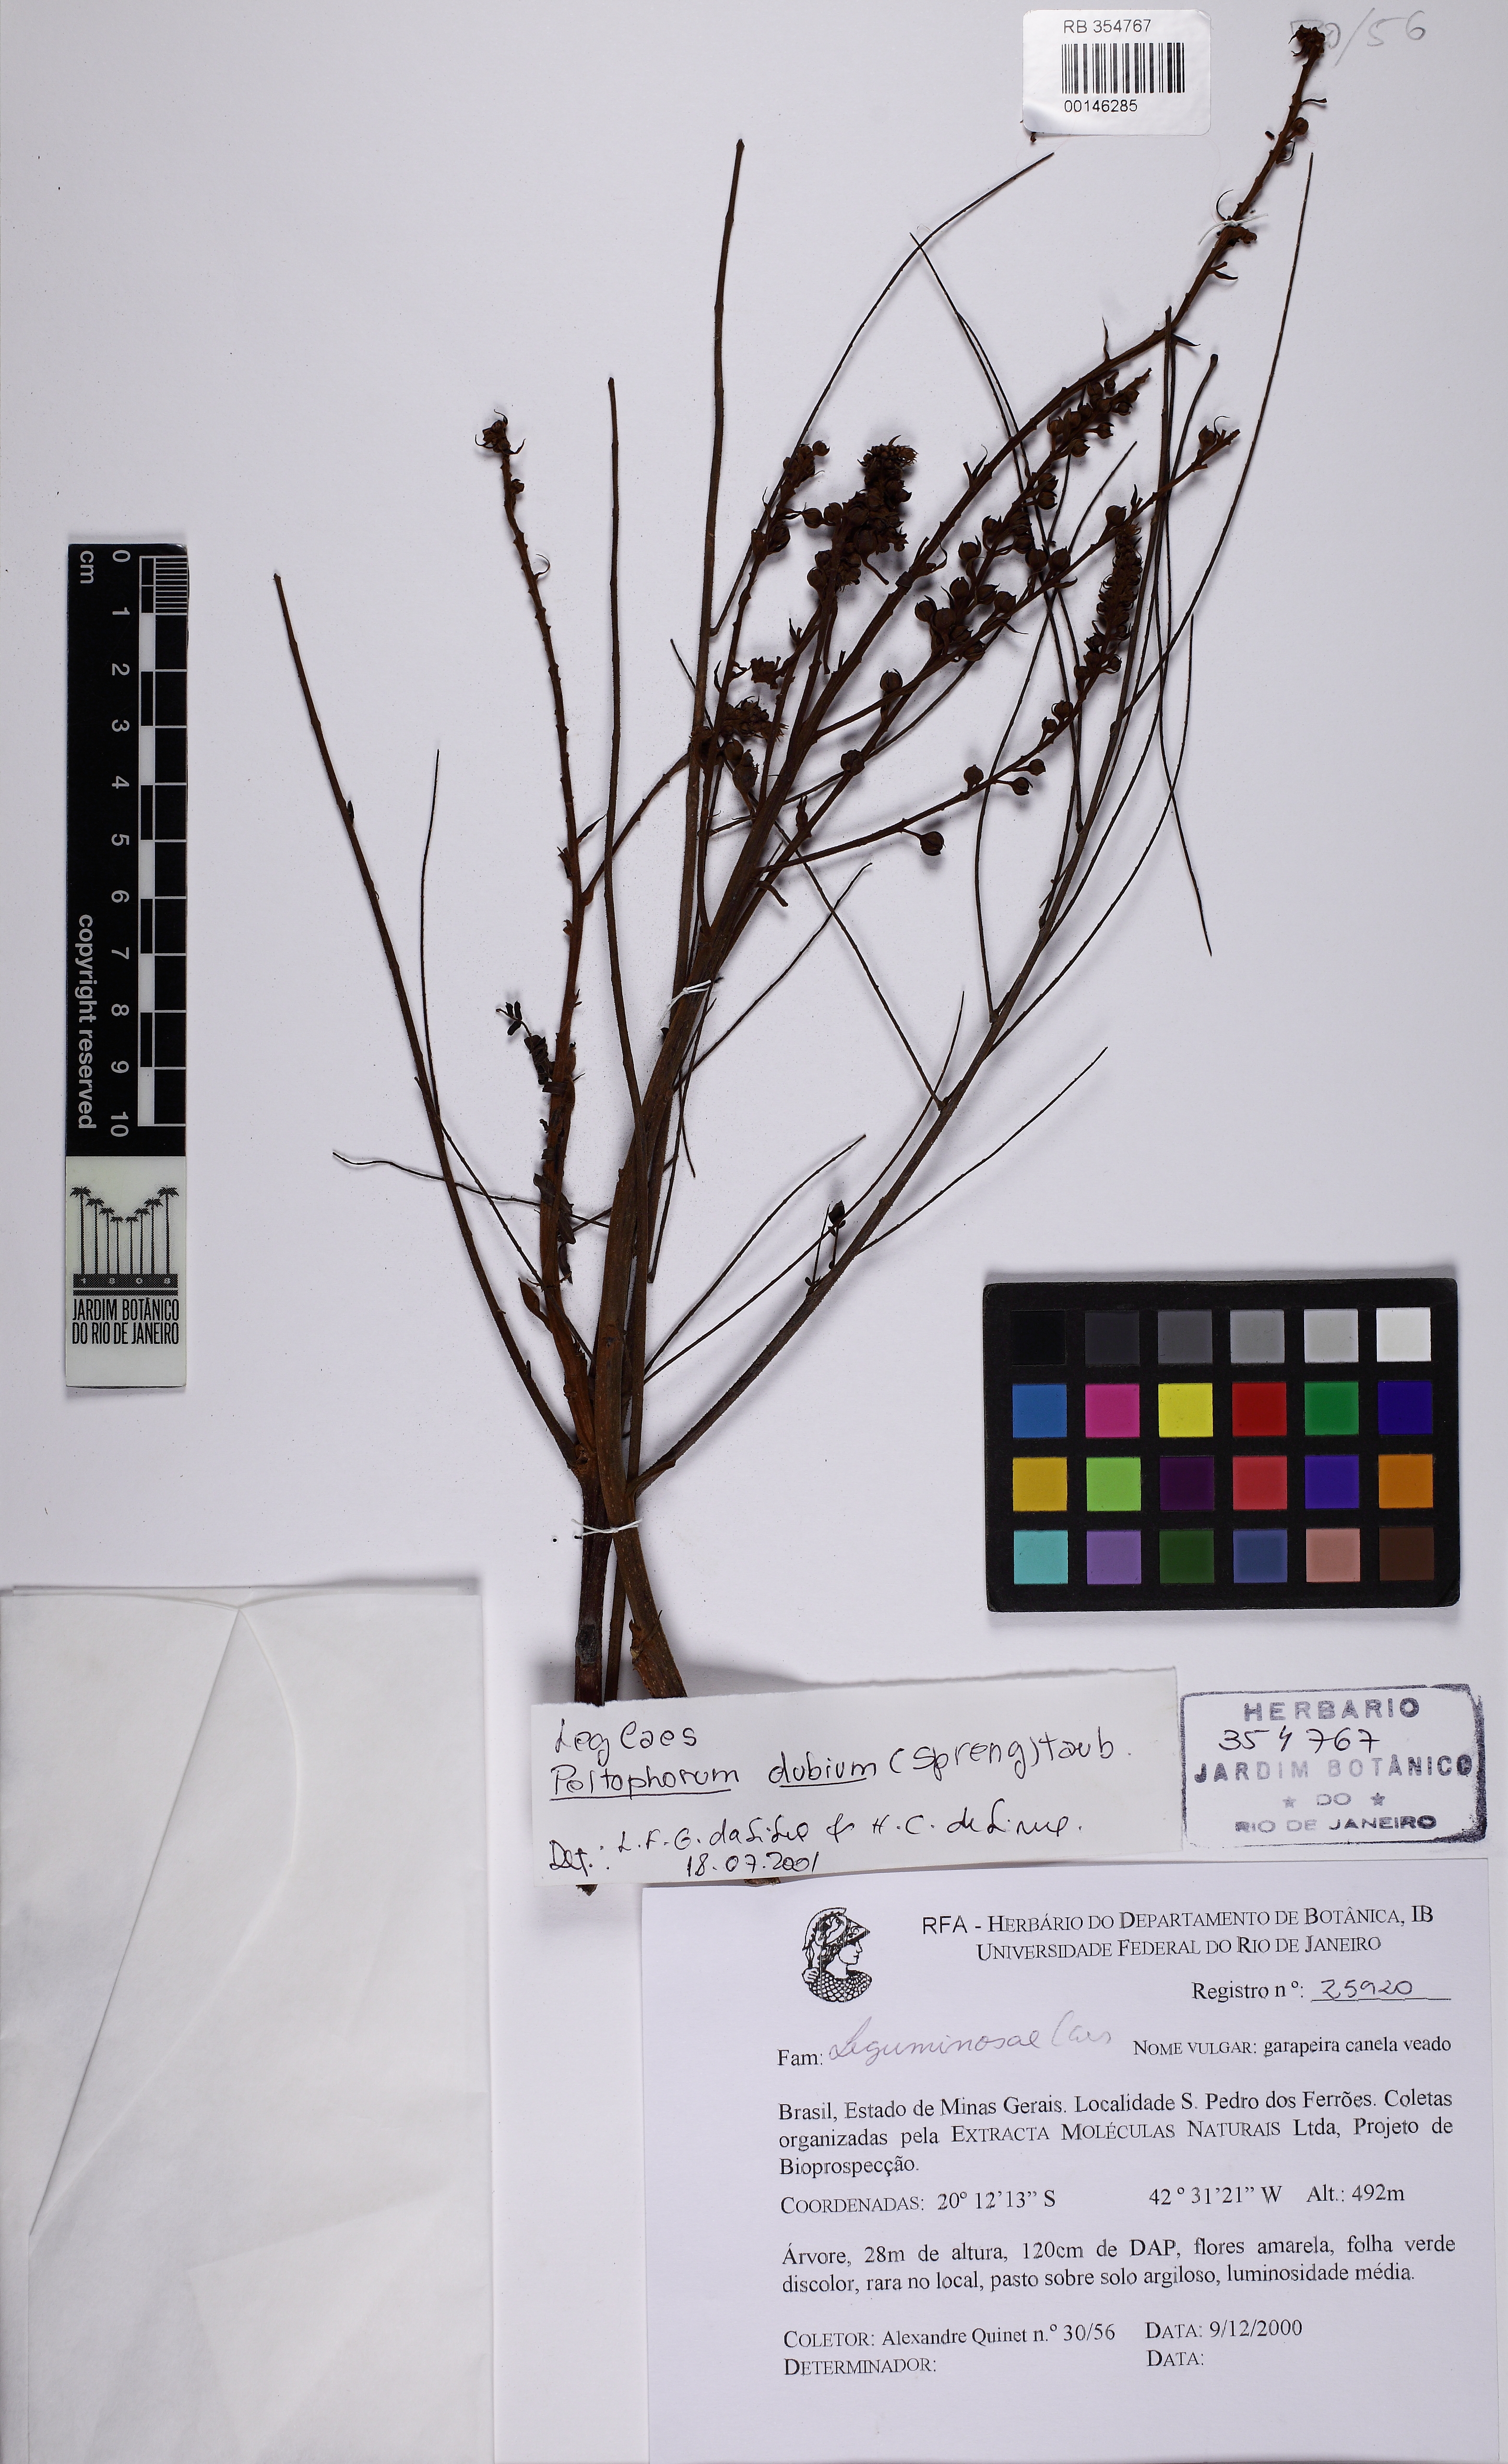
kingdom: Plantae
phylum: Tracheophyta
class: Magnoliopsida
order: Fabales
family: Fabaceae
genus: Peltophorum
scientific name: Peltophorum dubium
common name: Horsebush
